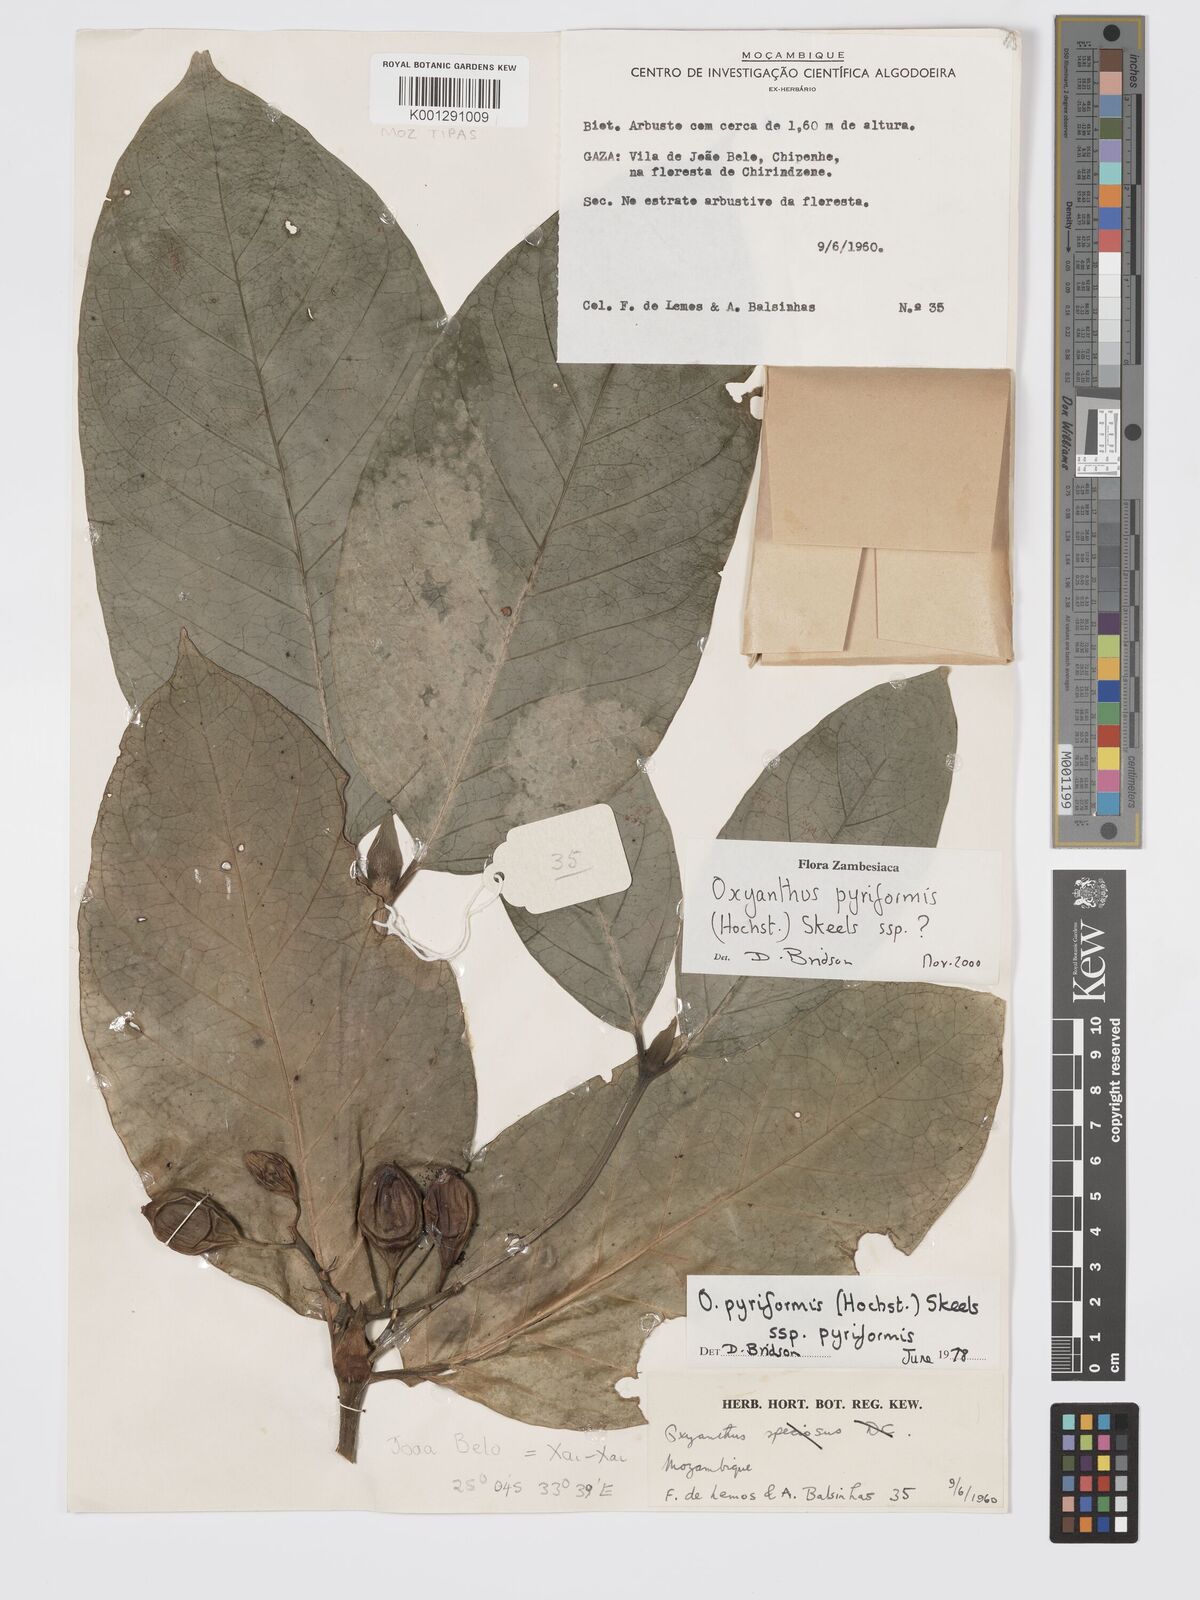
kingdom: Plantae
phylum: Tracheophyta
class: Magnoliopsida
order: Gentianales
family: Rubiaceae
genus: Oxyanthus
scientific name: Oxyanthus pyriformis
